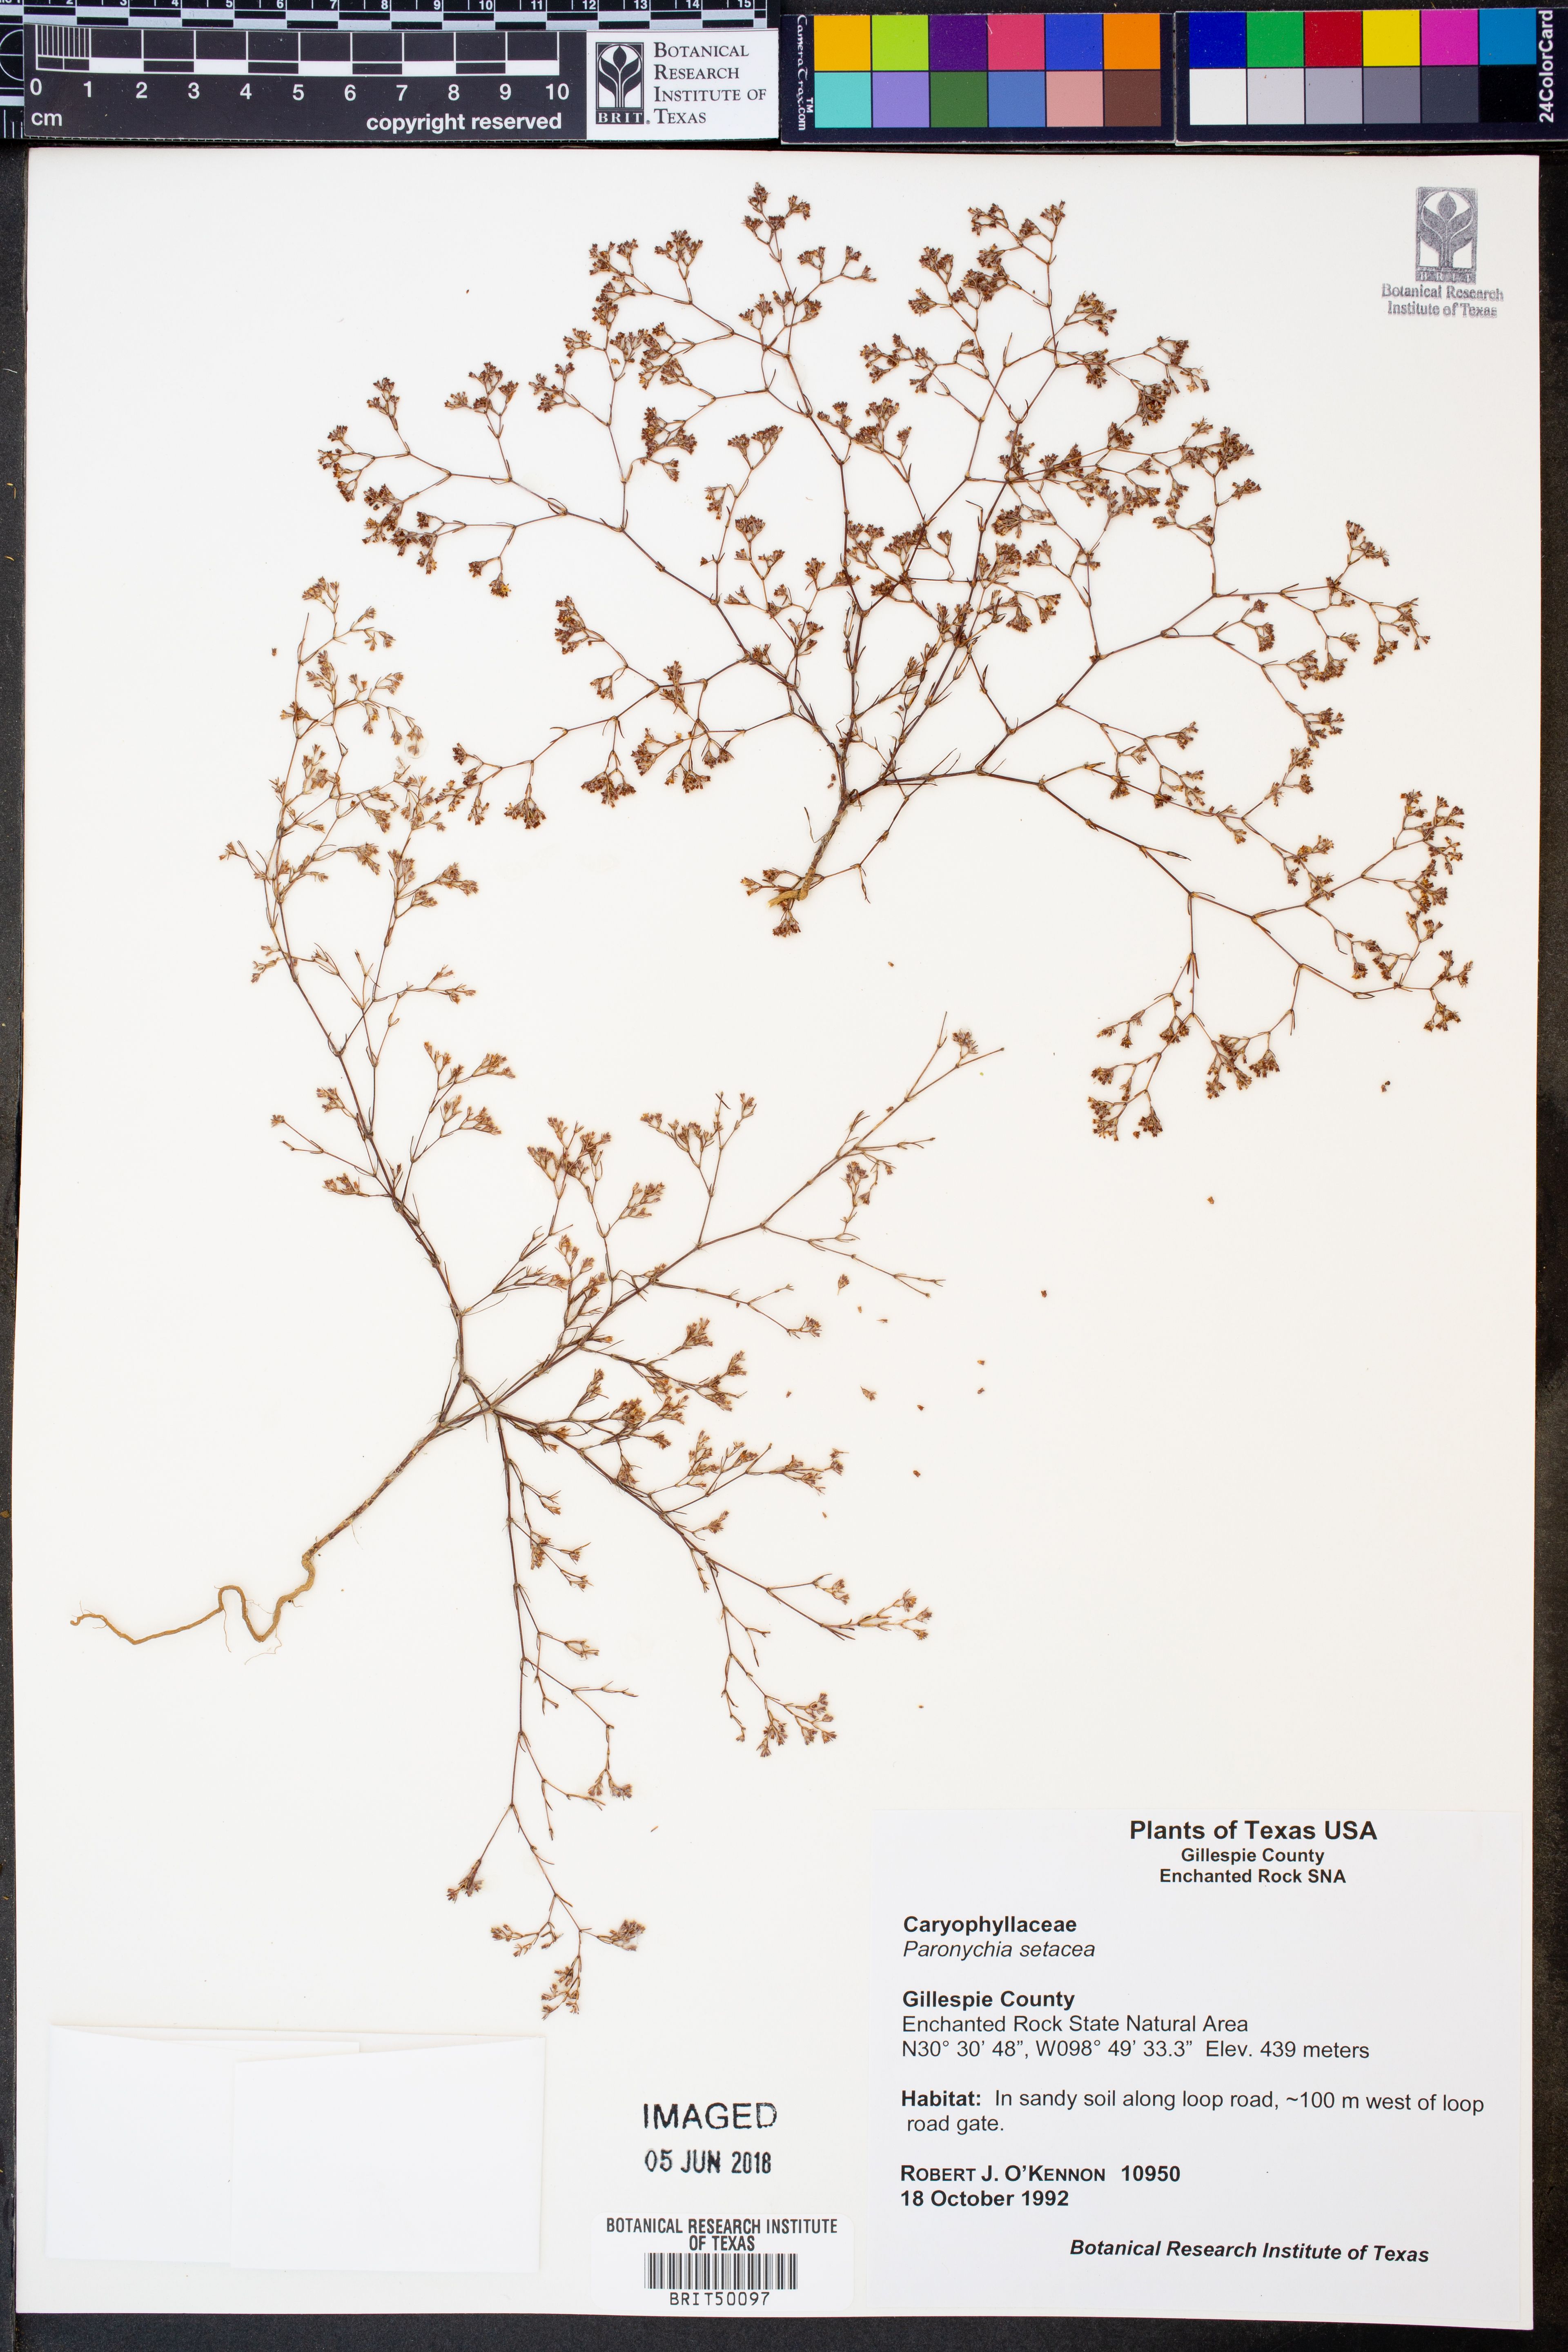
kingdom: Plantae
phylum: Tracheophyta
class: Magnoliopsida
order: Caryophyllales
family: Caryophyllaceae
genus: Paronychia
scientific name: Paronychia setacea
